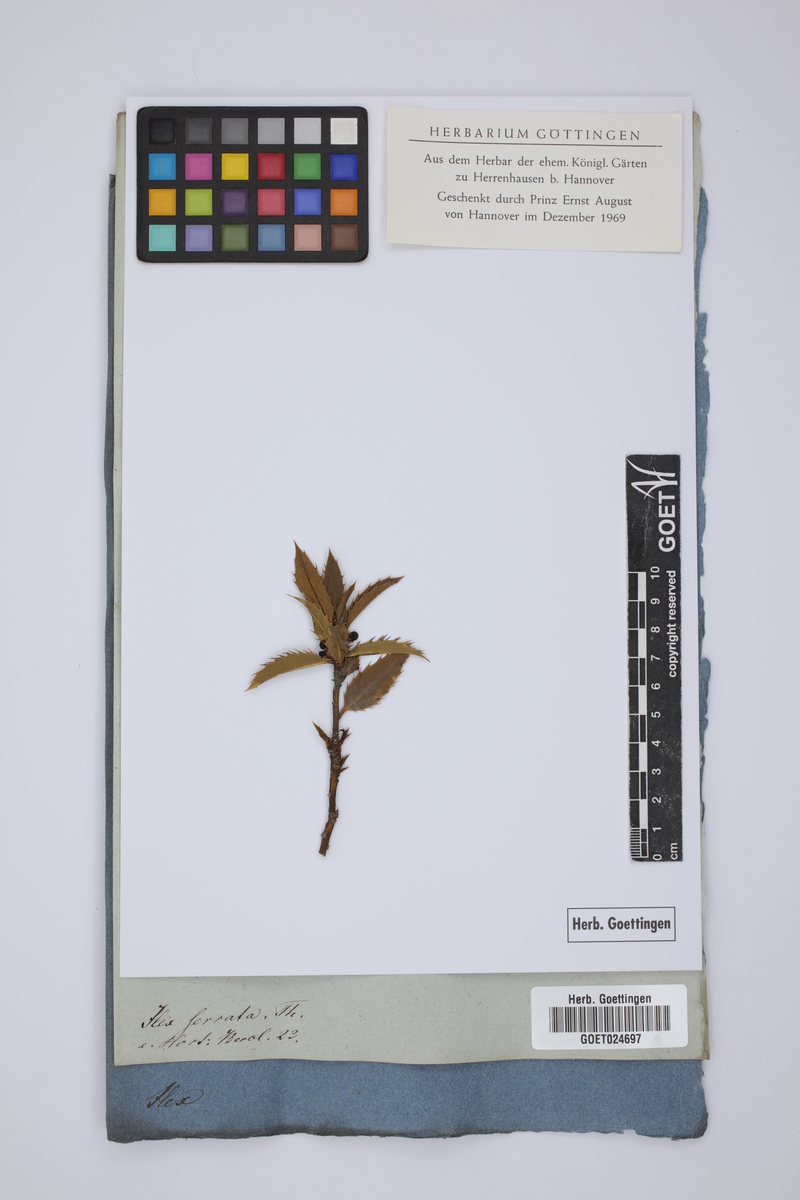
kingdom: Plantae
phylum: Tracheophyta
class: Magnoliopsida
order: Aquifoliales
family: Aquifoliaceae
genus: Ilex
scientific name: Ilex serrata
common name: Japanese winterberry
